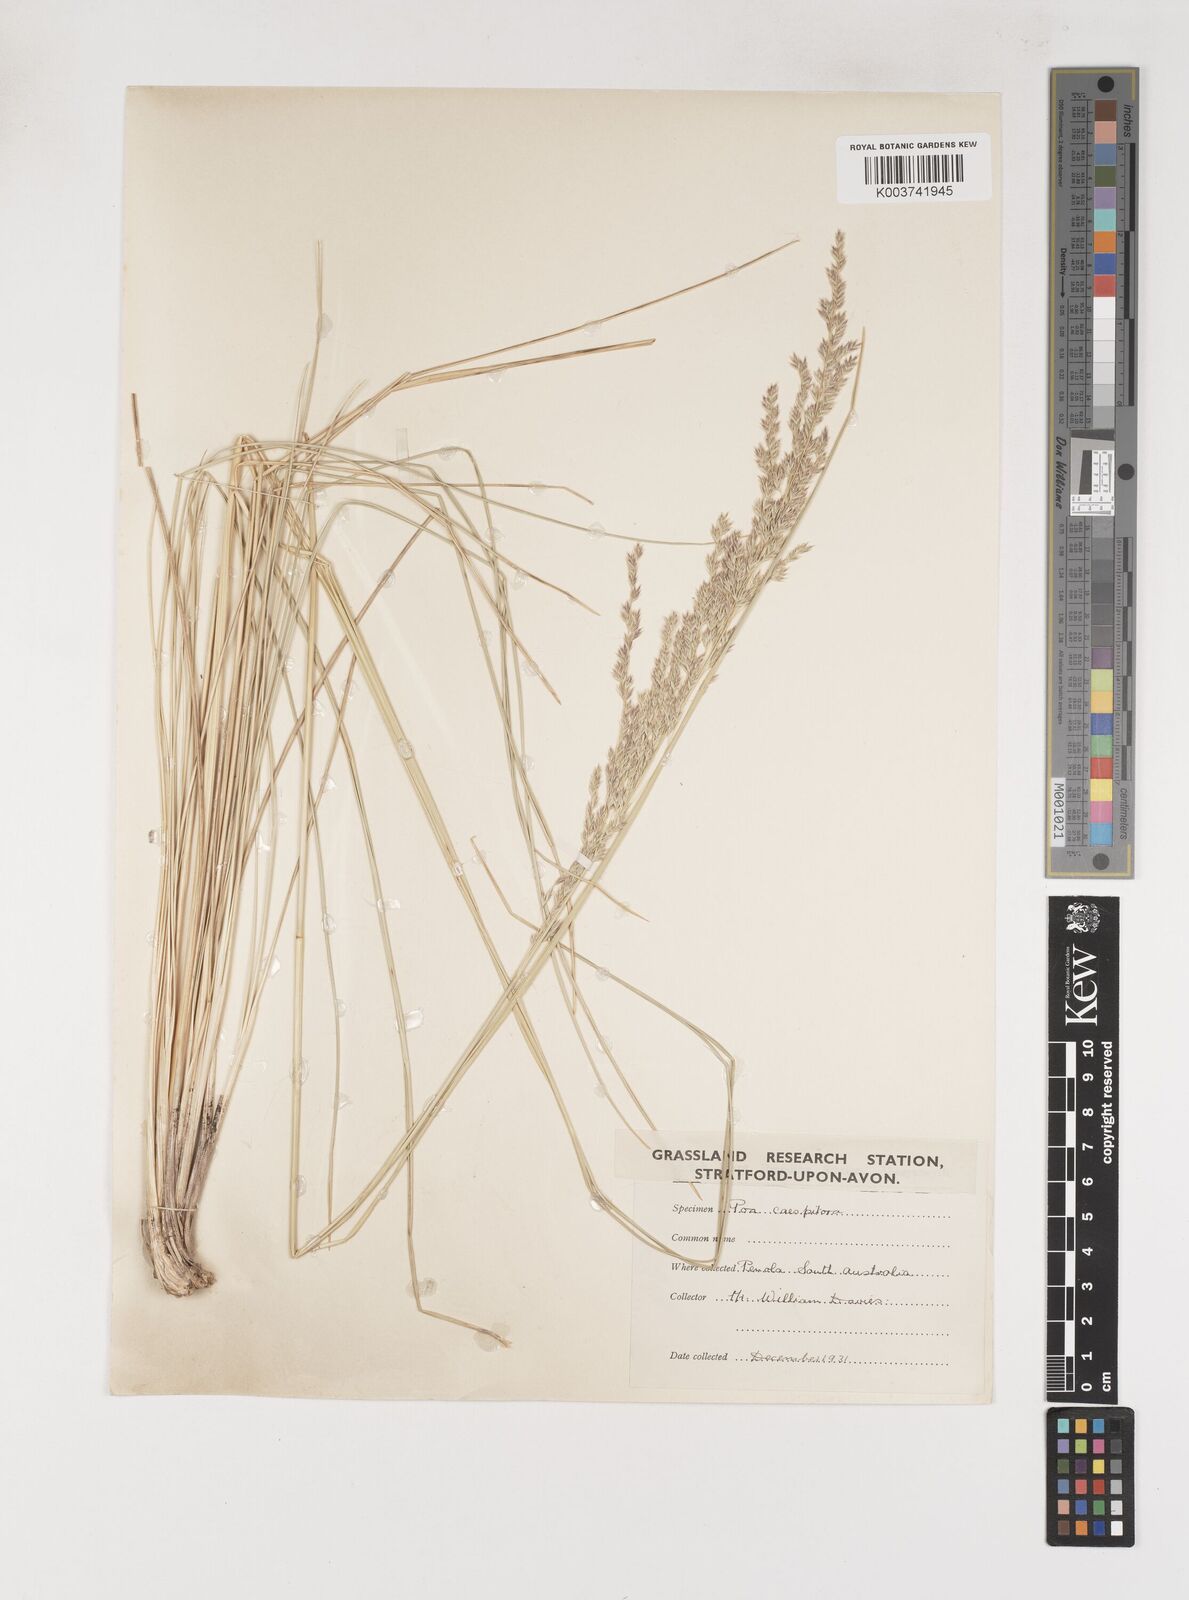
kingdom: Plantae
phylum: Tracheophyta
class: Liliopsida
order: Poales
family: Poaceae
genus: Poa
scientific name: Poa tenera
